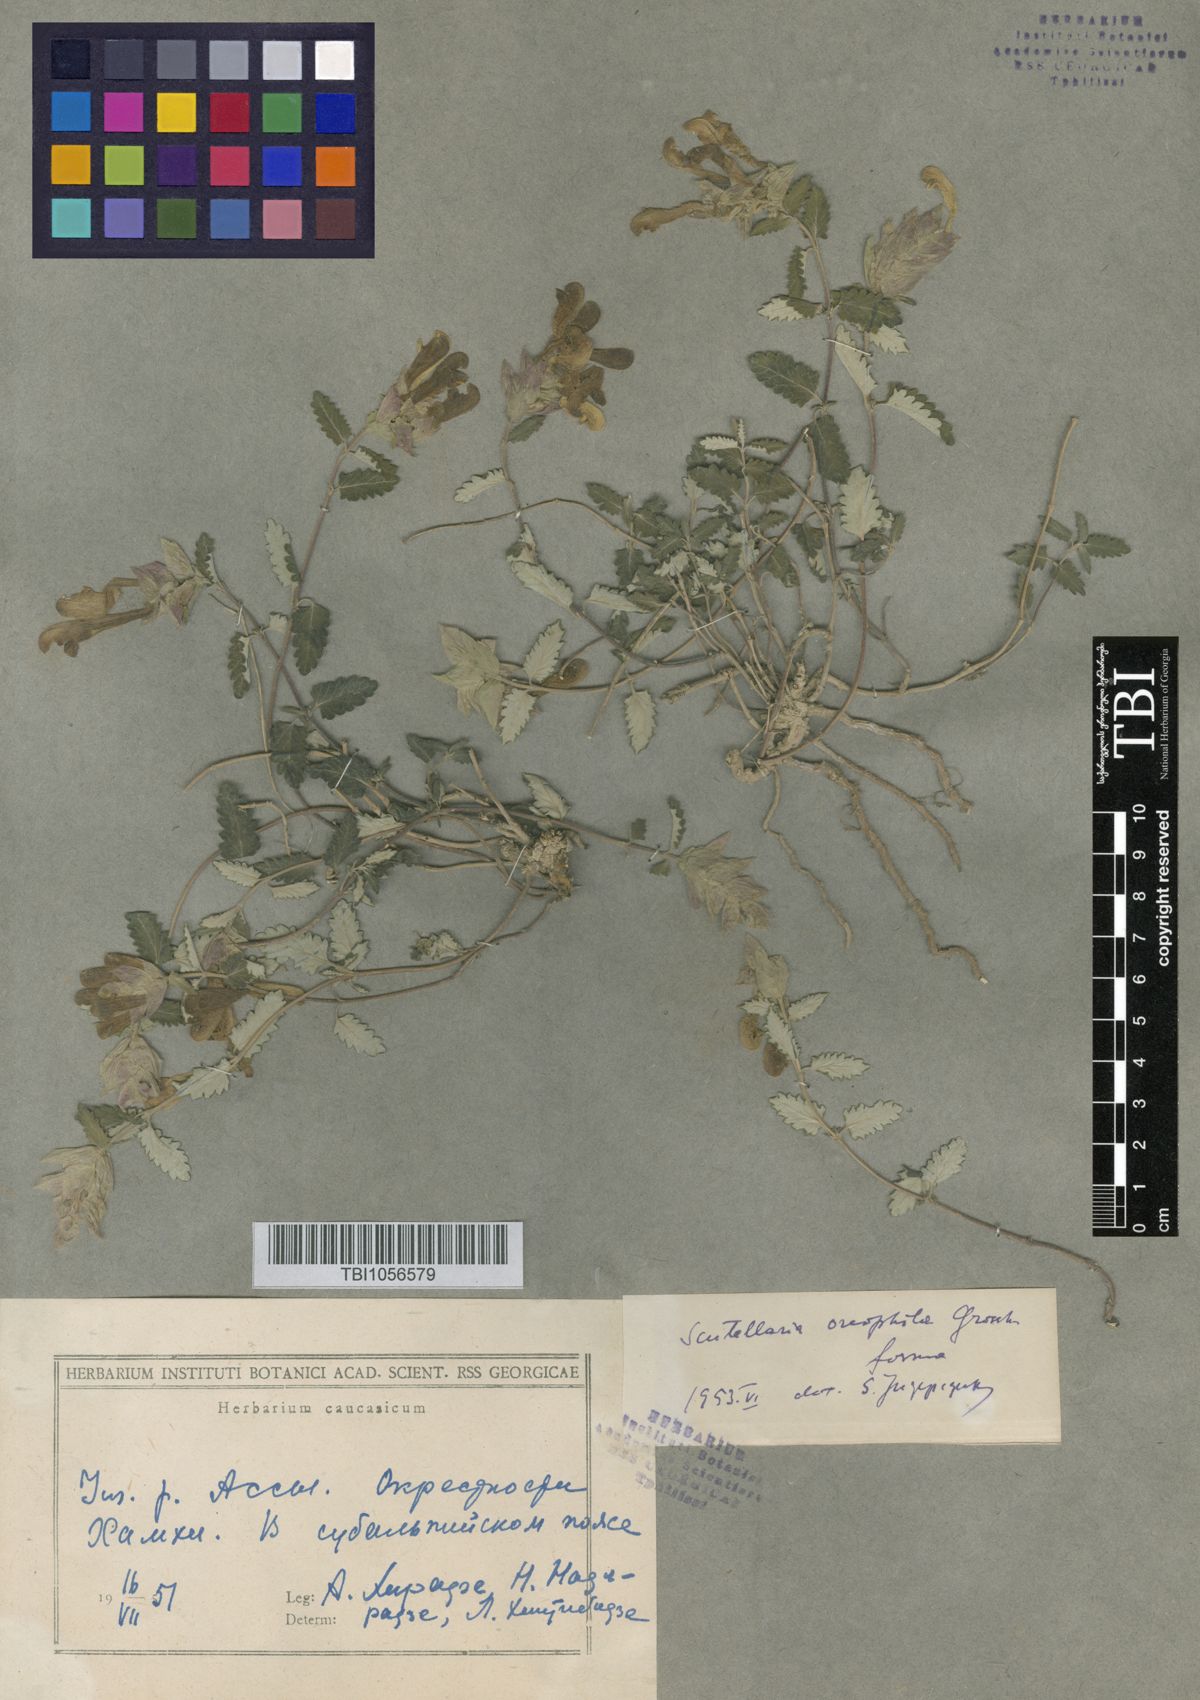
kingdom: Plantae
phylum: Tracheophyta
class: Magnoliopsida
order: Lamiales
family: Lamiaceae
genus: Scutellaria
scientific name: Scutellaria oreophila
